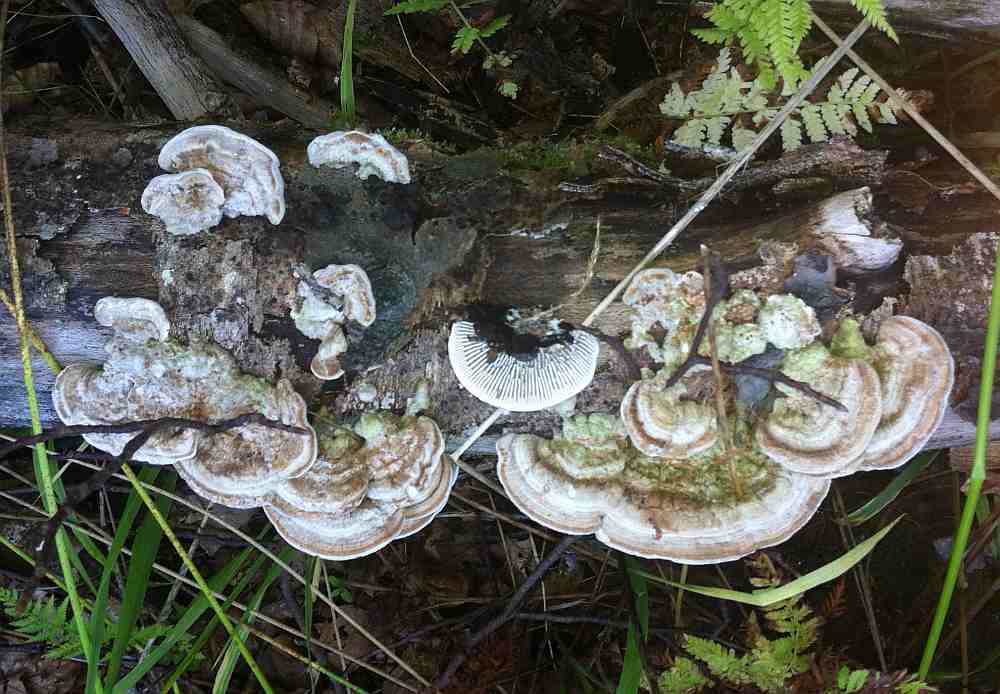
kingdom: Fungi
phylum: Basidiomycota
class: Agaricomycetes
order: Polyporales
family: Polyporaceae
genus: Lenzites
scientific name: Lenzites betulinus
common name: birke-læderporesvamp
